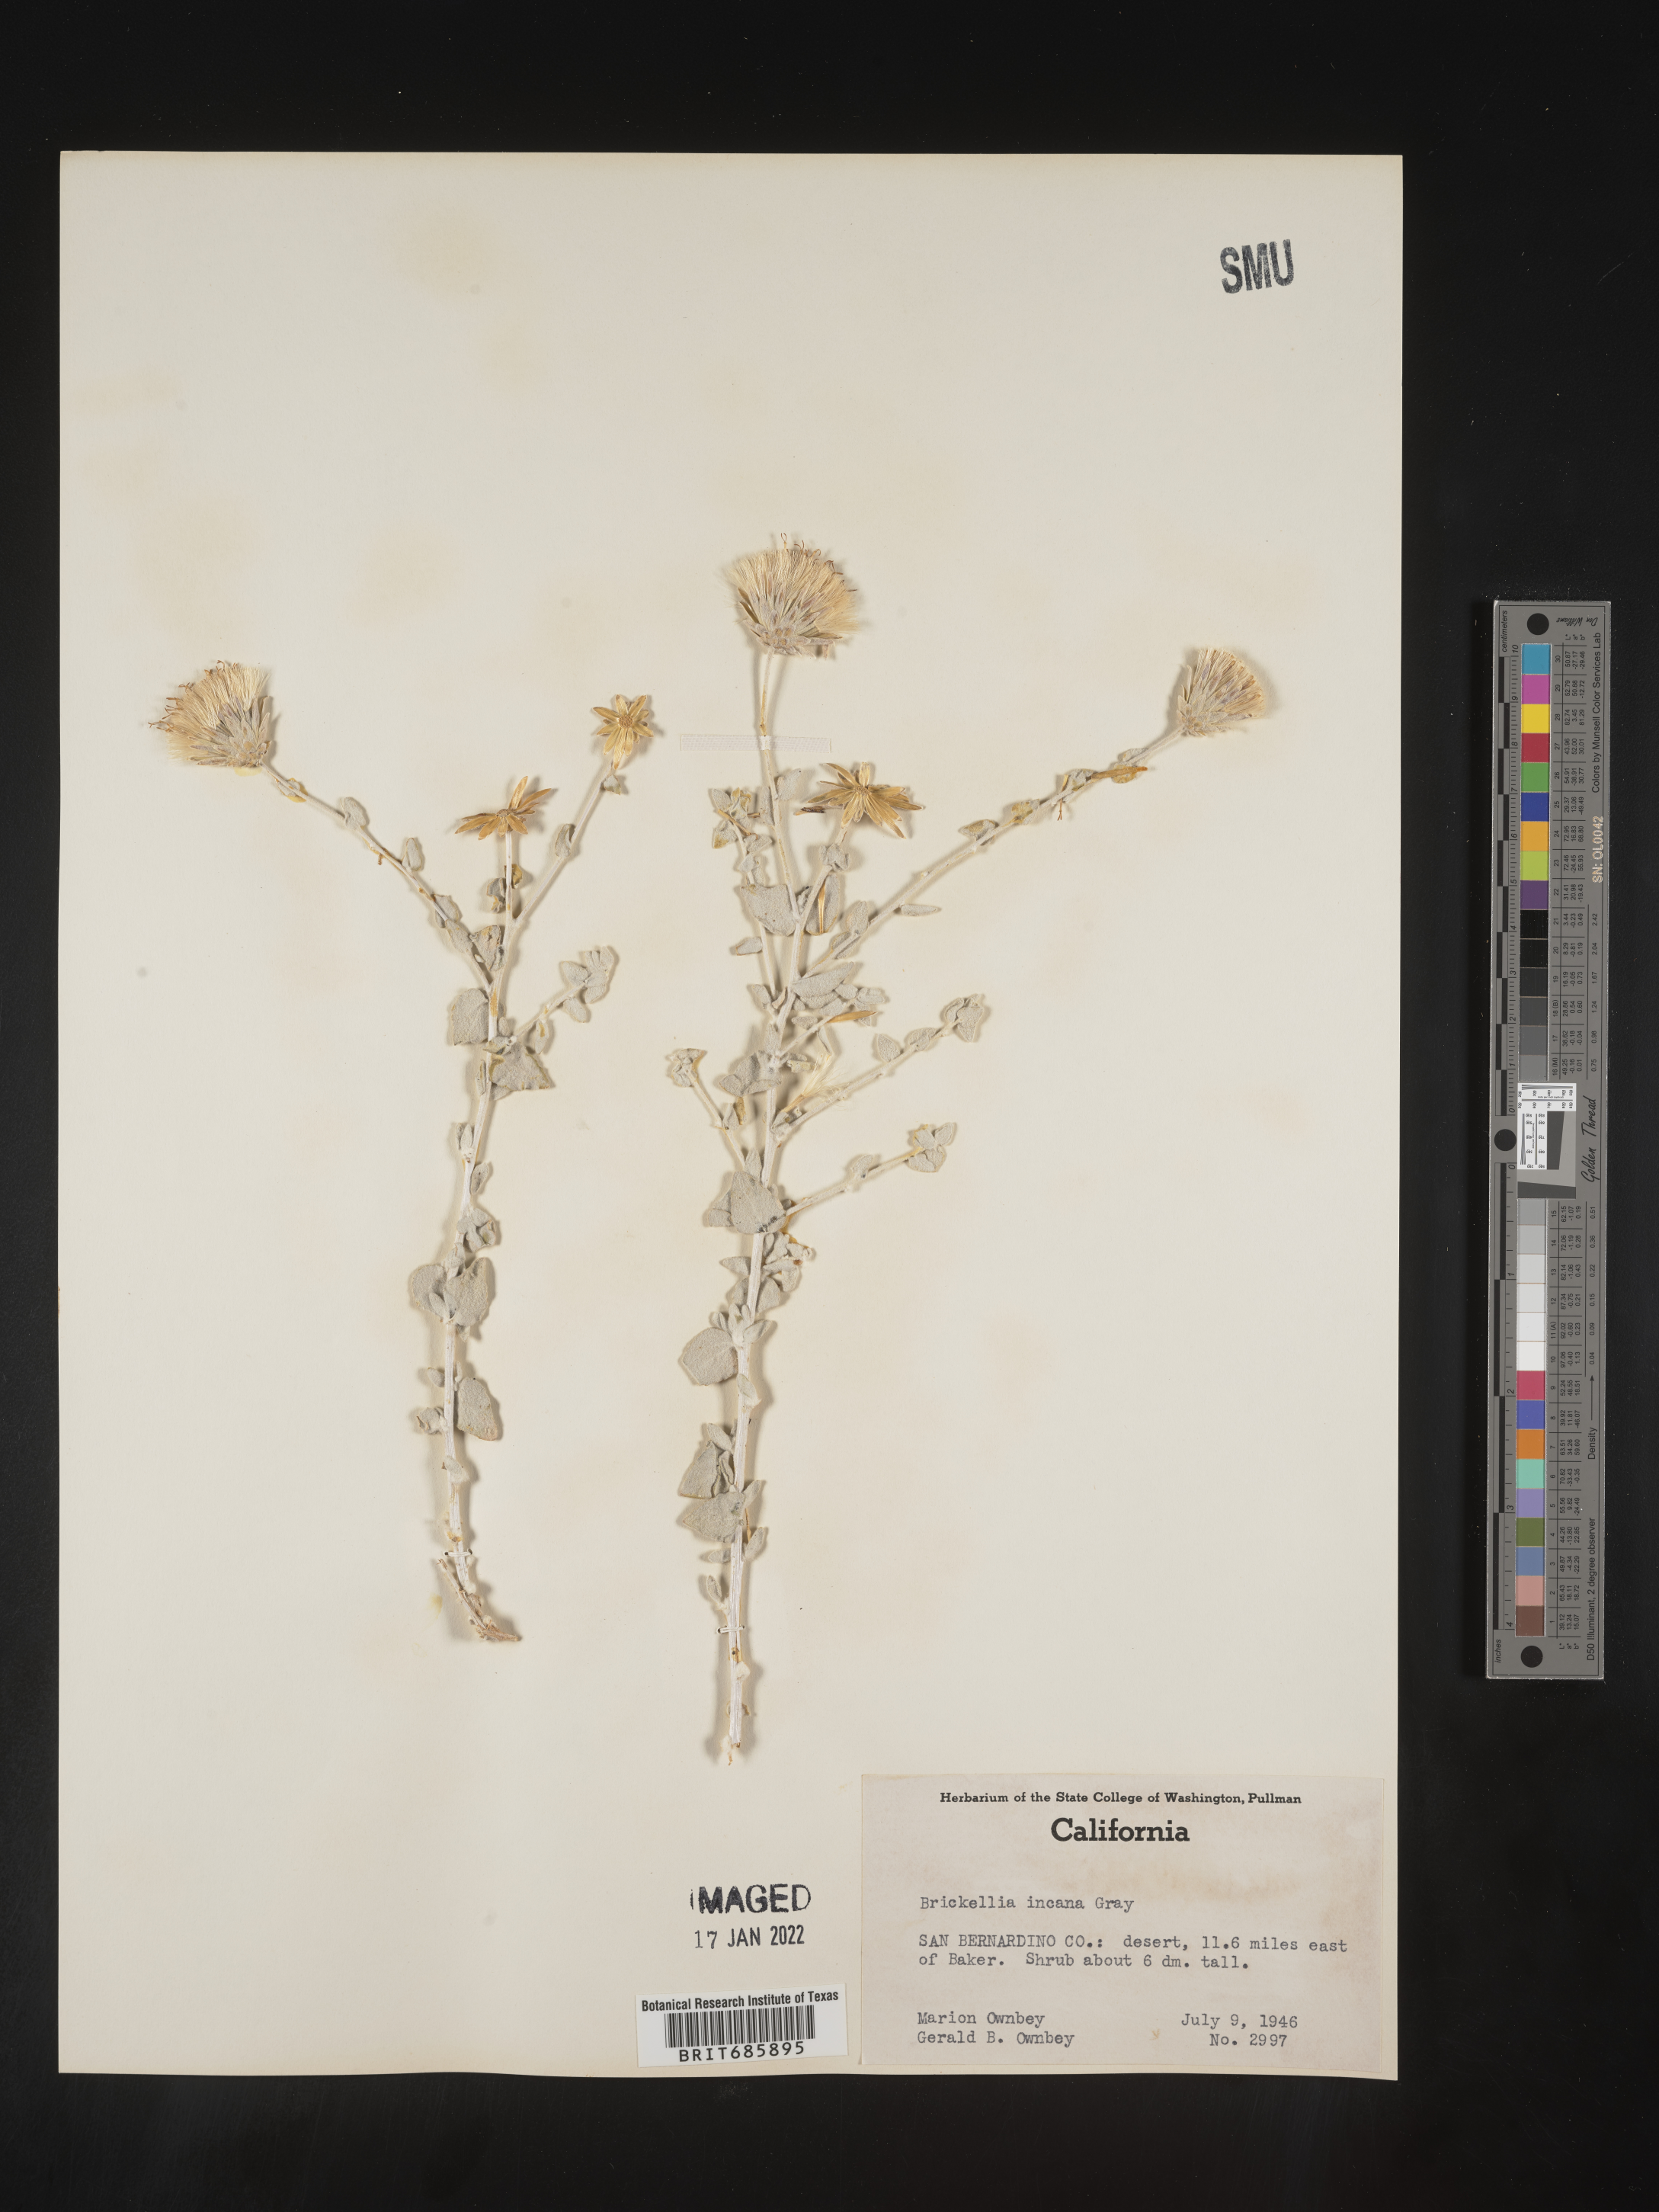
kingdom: Plantae
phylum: Tracheophyta
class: Magnoliopsida
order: Asterales
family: Asteraceae
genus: Brickellia
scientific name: Brickellia incana
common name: Woolly brickelbush
